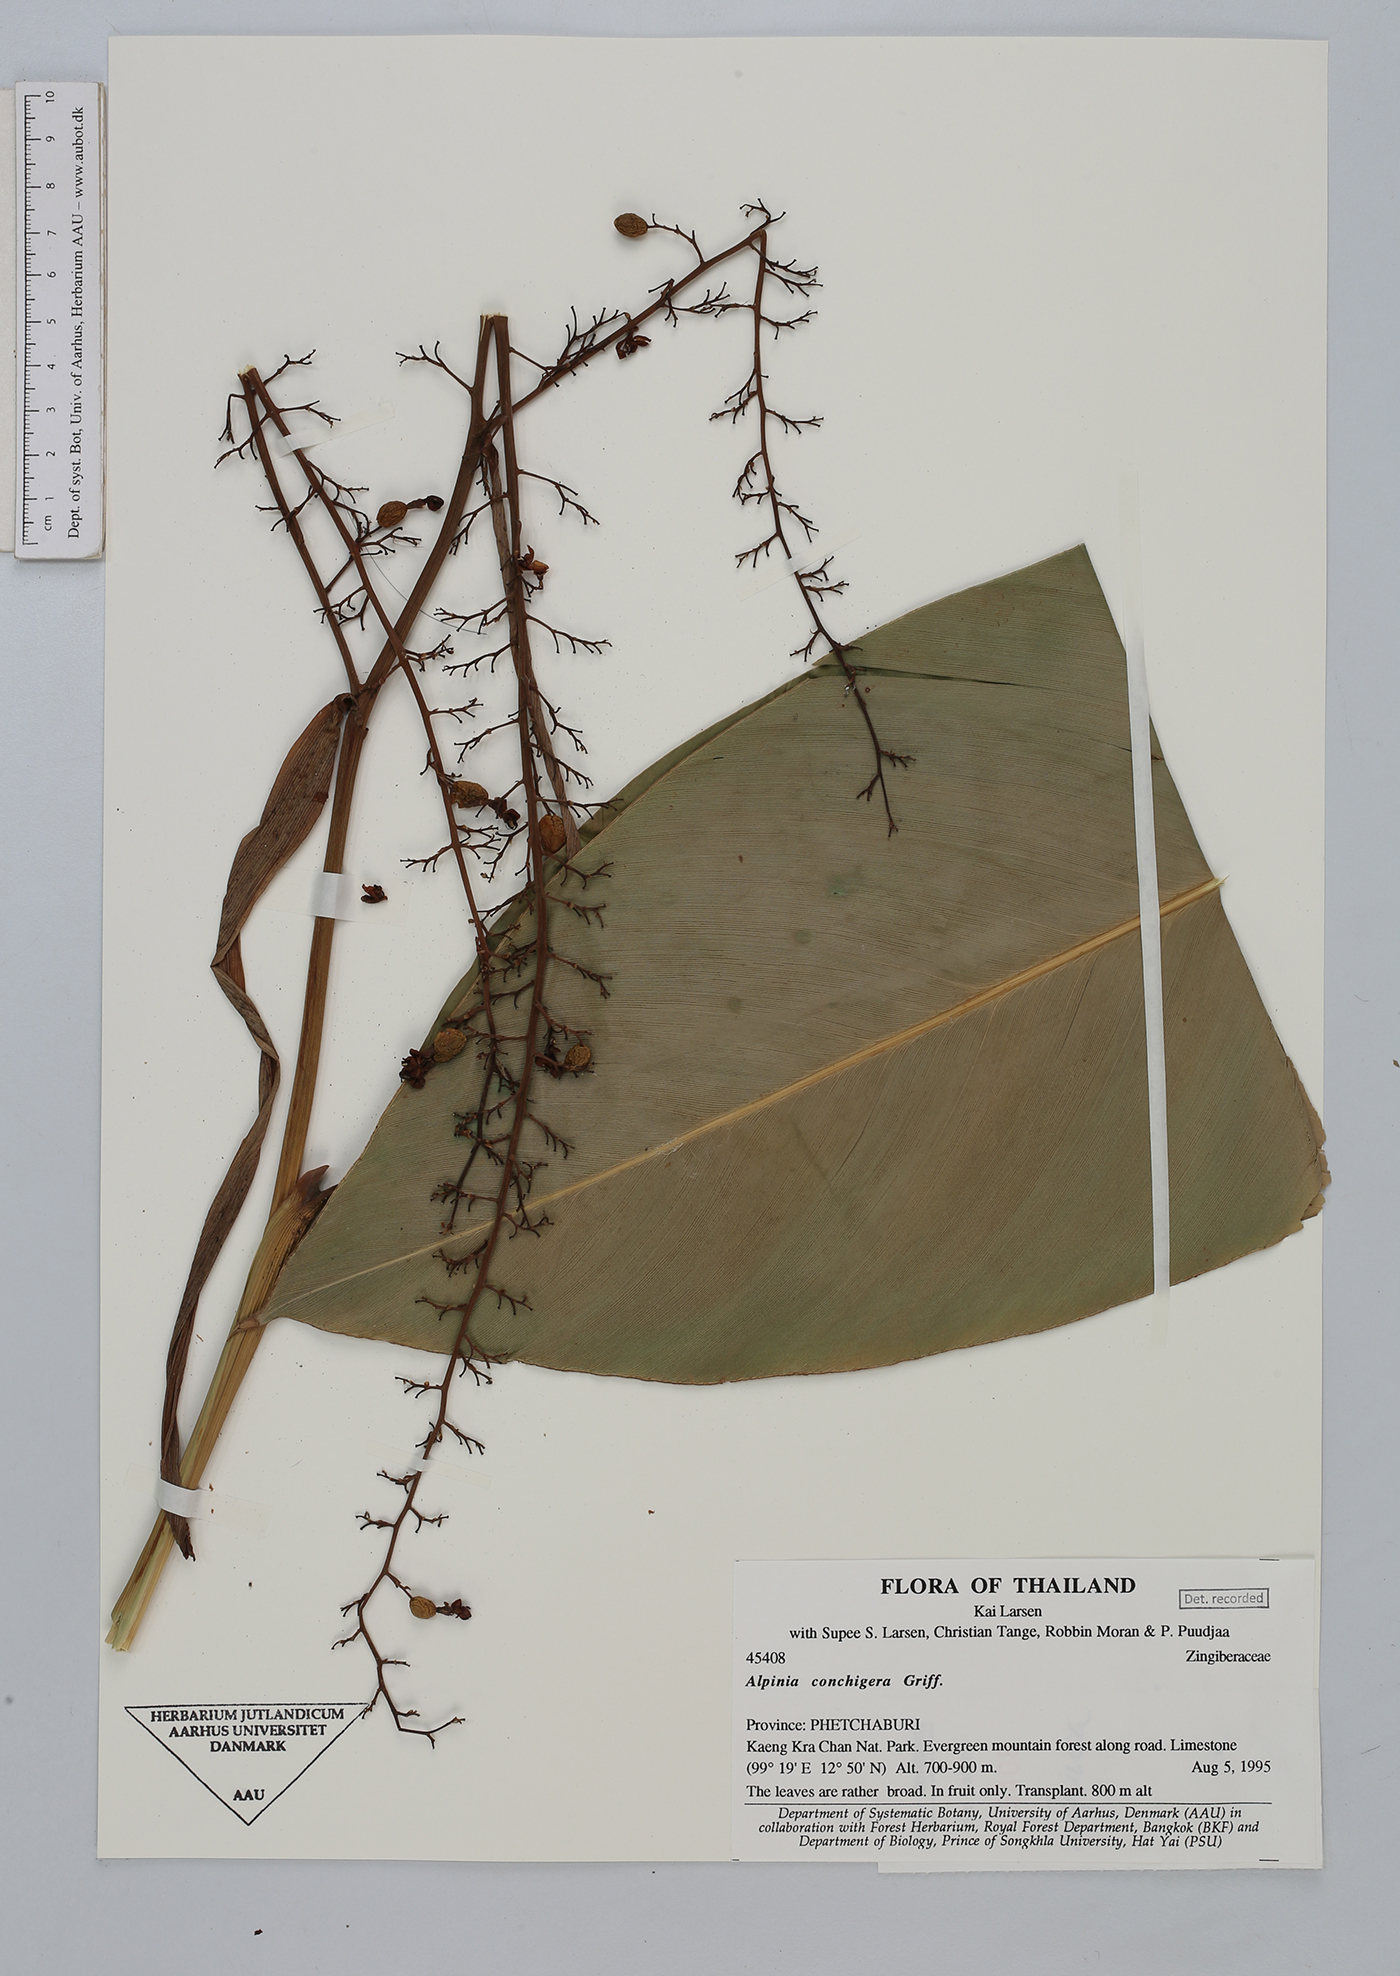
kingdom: Plantae
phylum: Tracheophyta
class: Liliopsida
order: Zingiberales
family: Zingiberaceae
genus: Alpinia
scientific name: Alpinia conchigera
